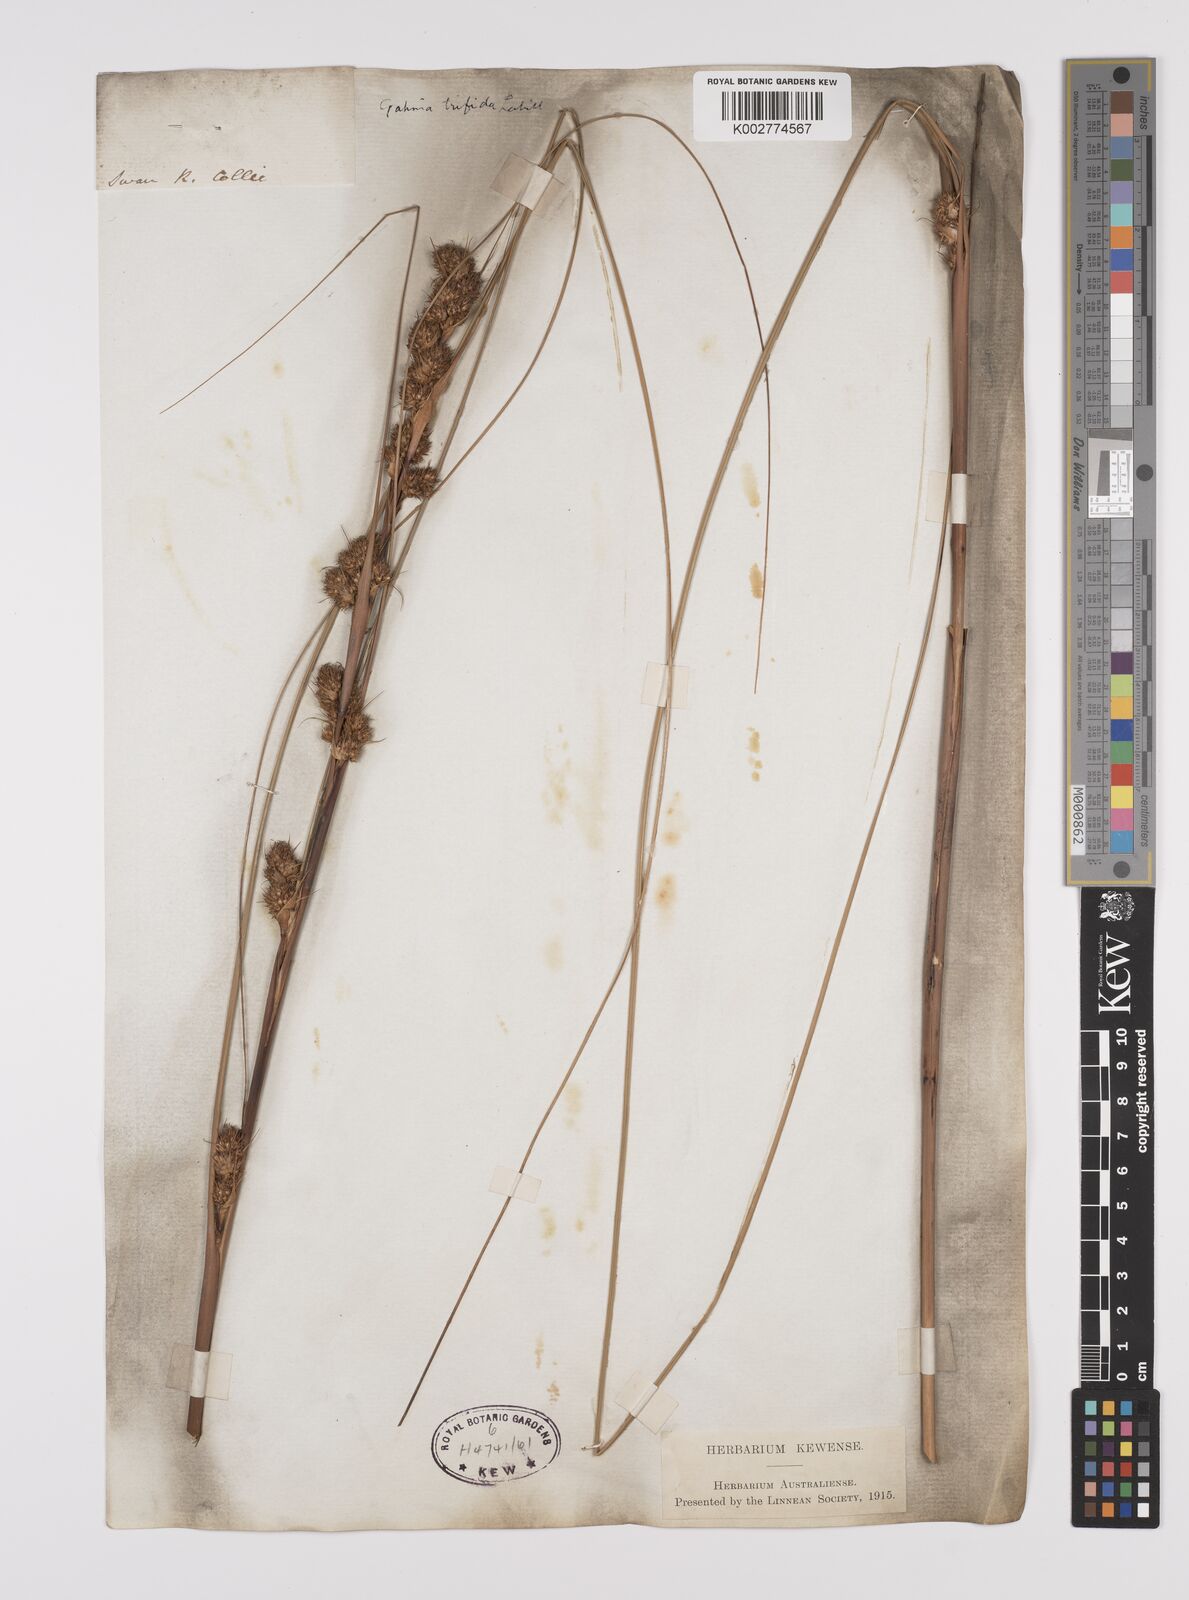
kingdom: Plantae
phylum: Tracheophyta
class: Liliopsida
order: Poales
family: Cyperaceae
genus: Gahnia
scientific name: Gahnia trifida
